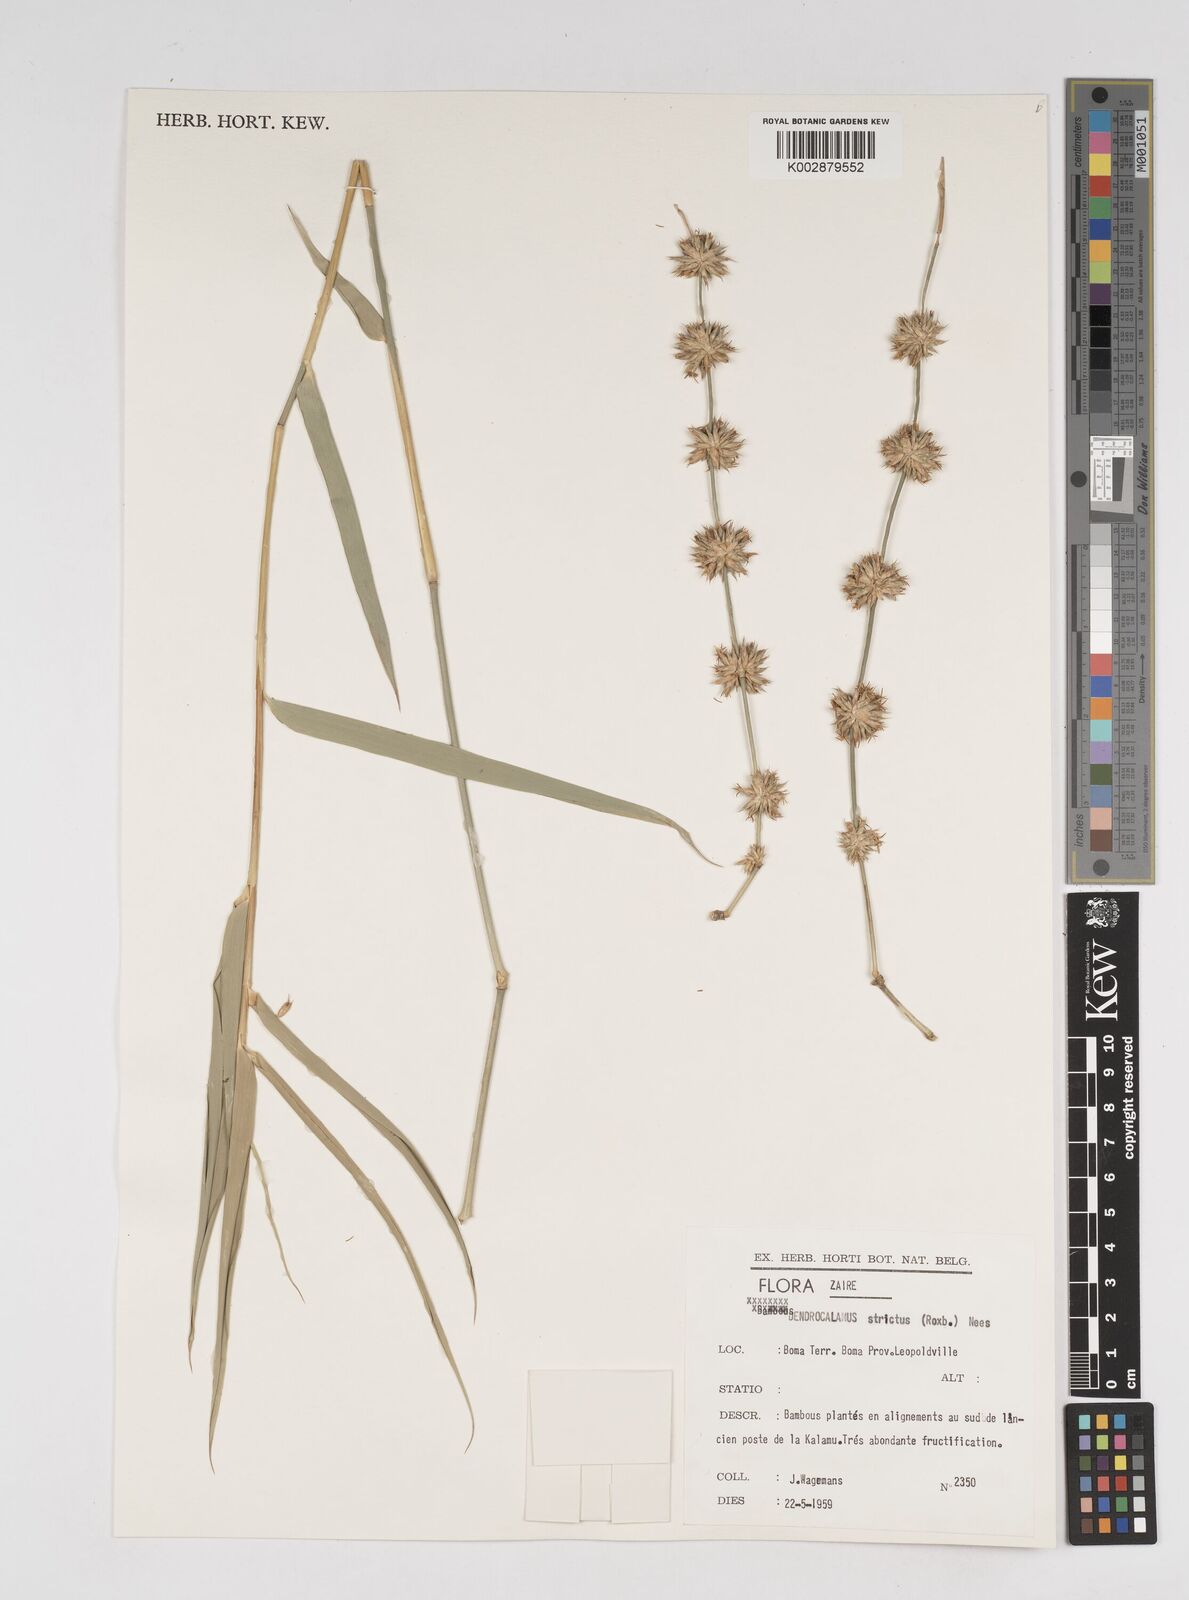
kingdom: Plantae
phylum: Tracheophyta
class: Liliopsida
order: Poales
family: Poaceae
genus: Dendrocalamus
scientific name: Dendrocalamus strictus
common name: Male bamboo
